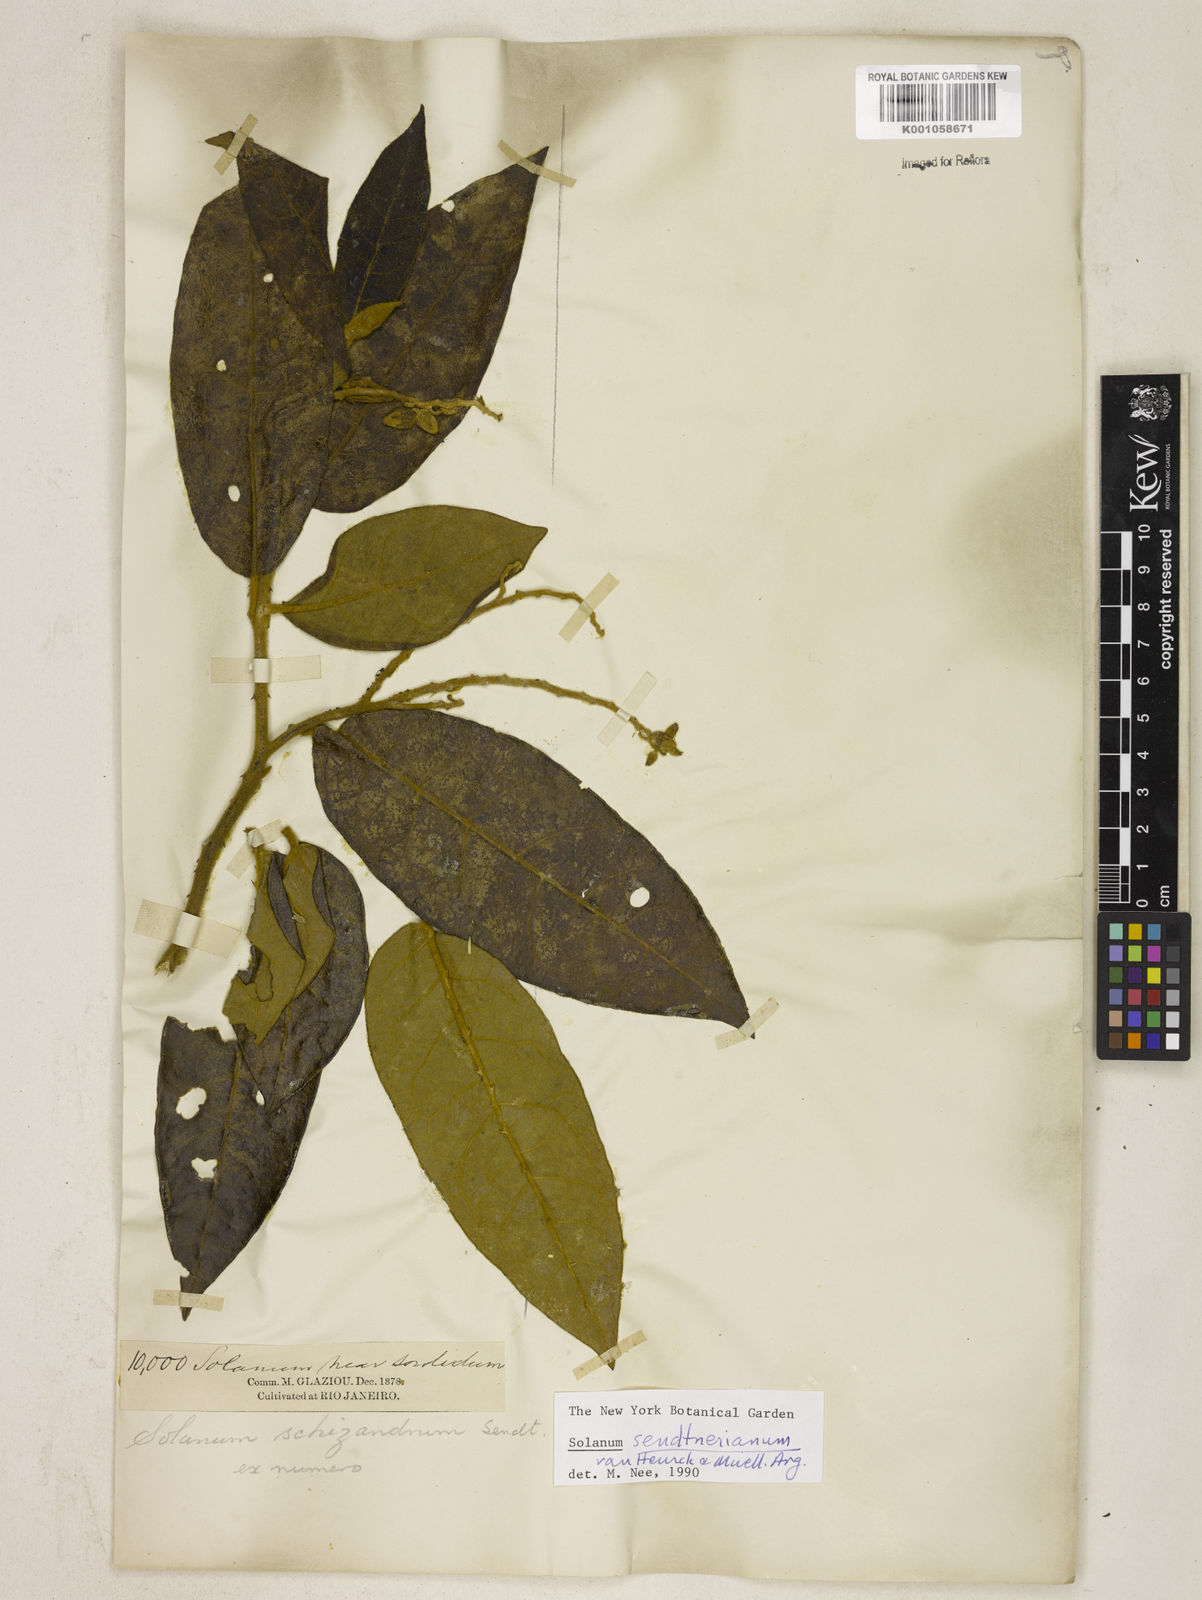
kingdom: Plantae
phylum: Tracheophyta
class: Magnoliopsida
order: Solanales
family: Solanaceae
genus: Solanum
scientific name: Solanum
